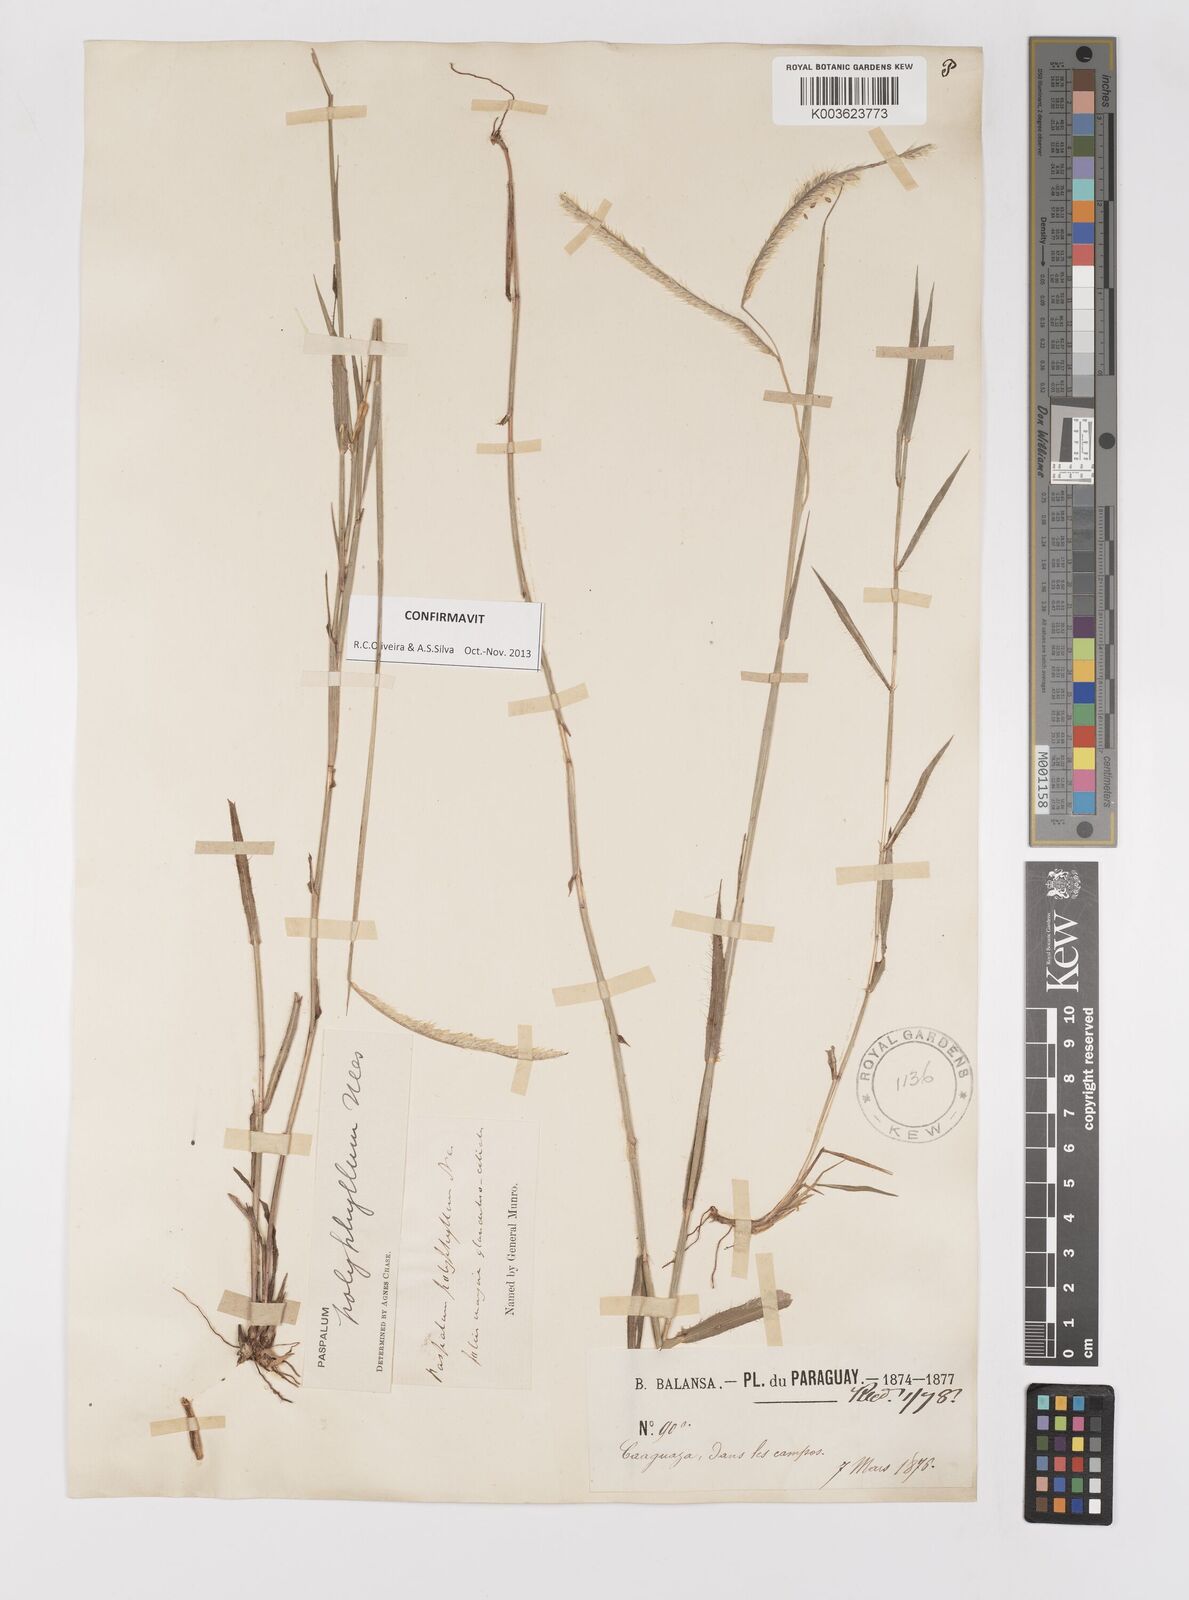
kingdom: Plantae
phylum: Tracheophyta
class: Liliopsida
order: Poales
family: Poaceae
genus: Paspalum
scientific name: Paspalum polyphyllum
